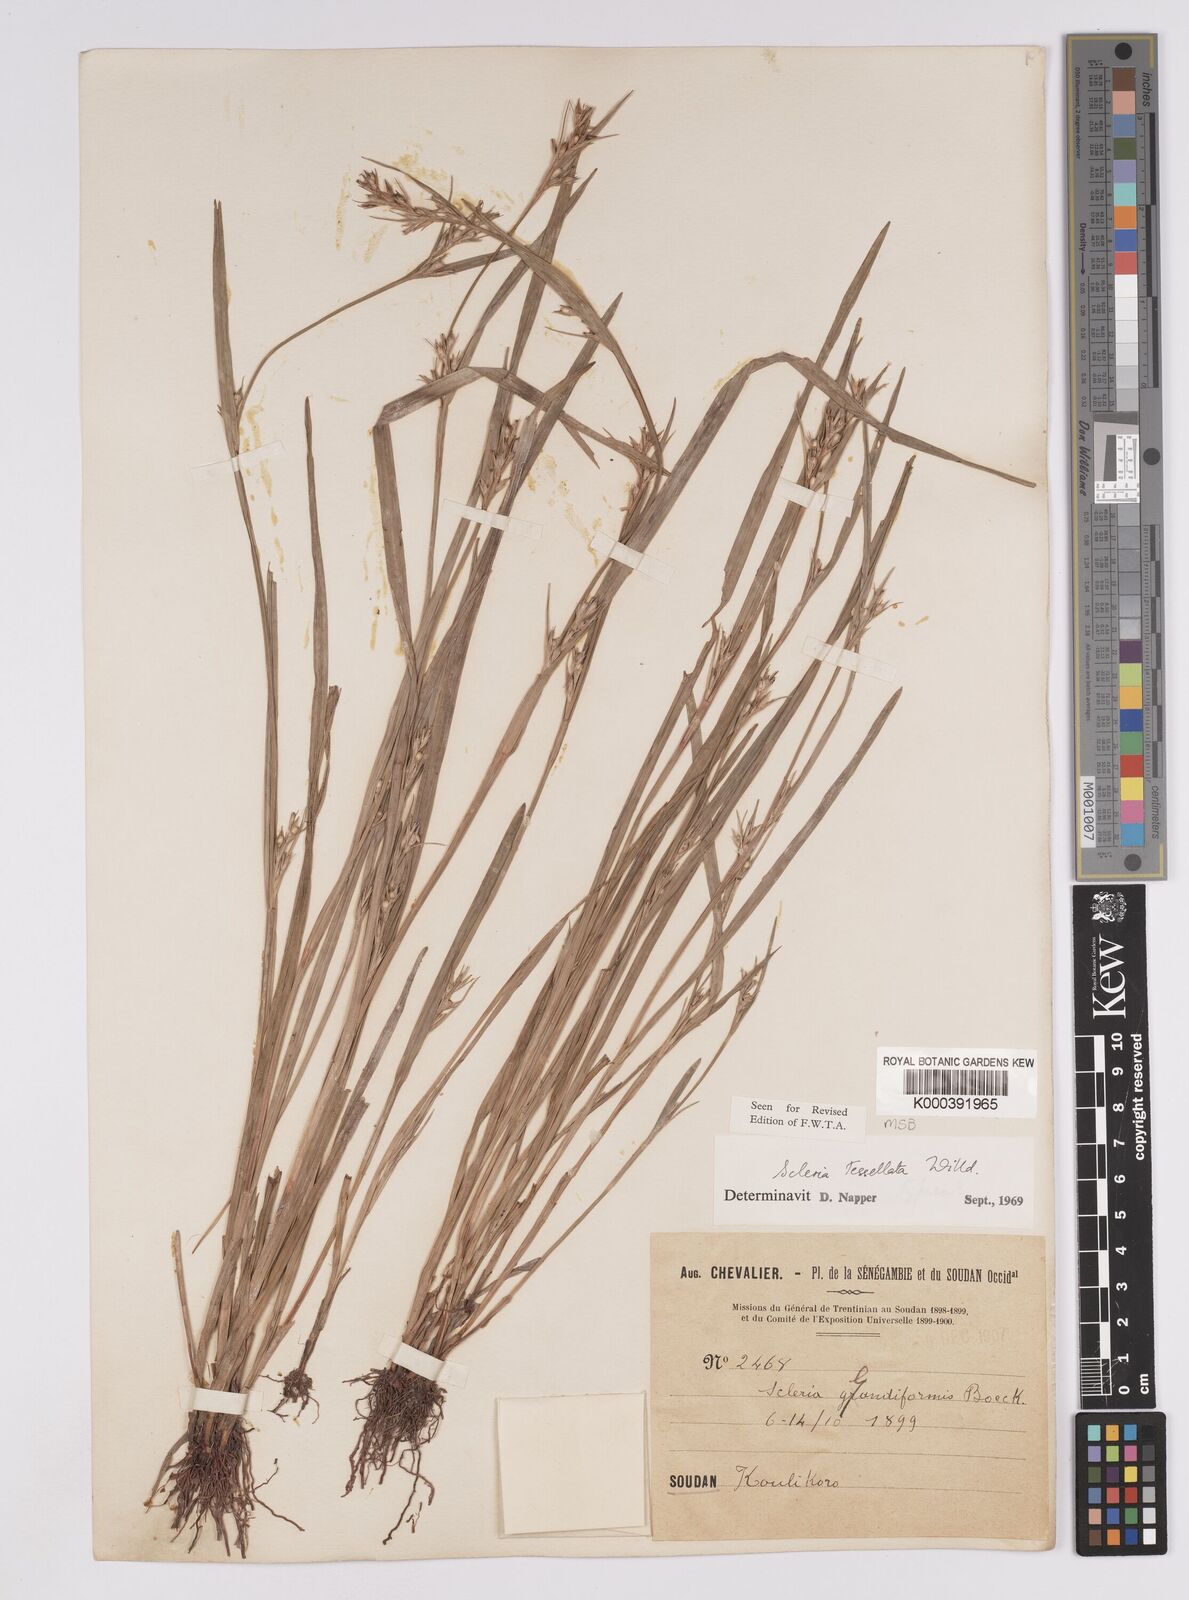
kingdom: Plantae
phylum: Tracheophyta
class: Liliopsida
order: Poales
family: Cyperaceae
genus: Scleria
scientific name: Scleria tessellata
